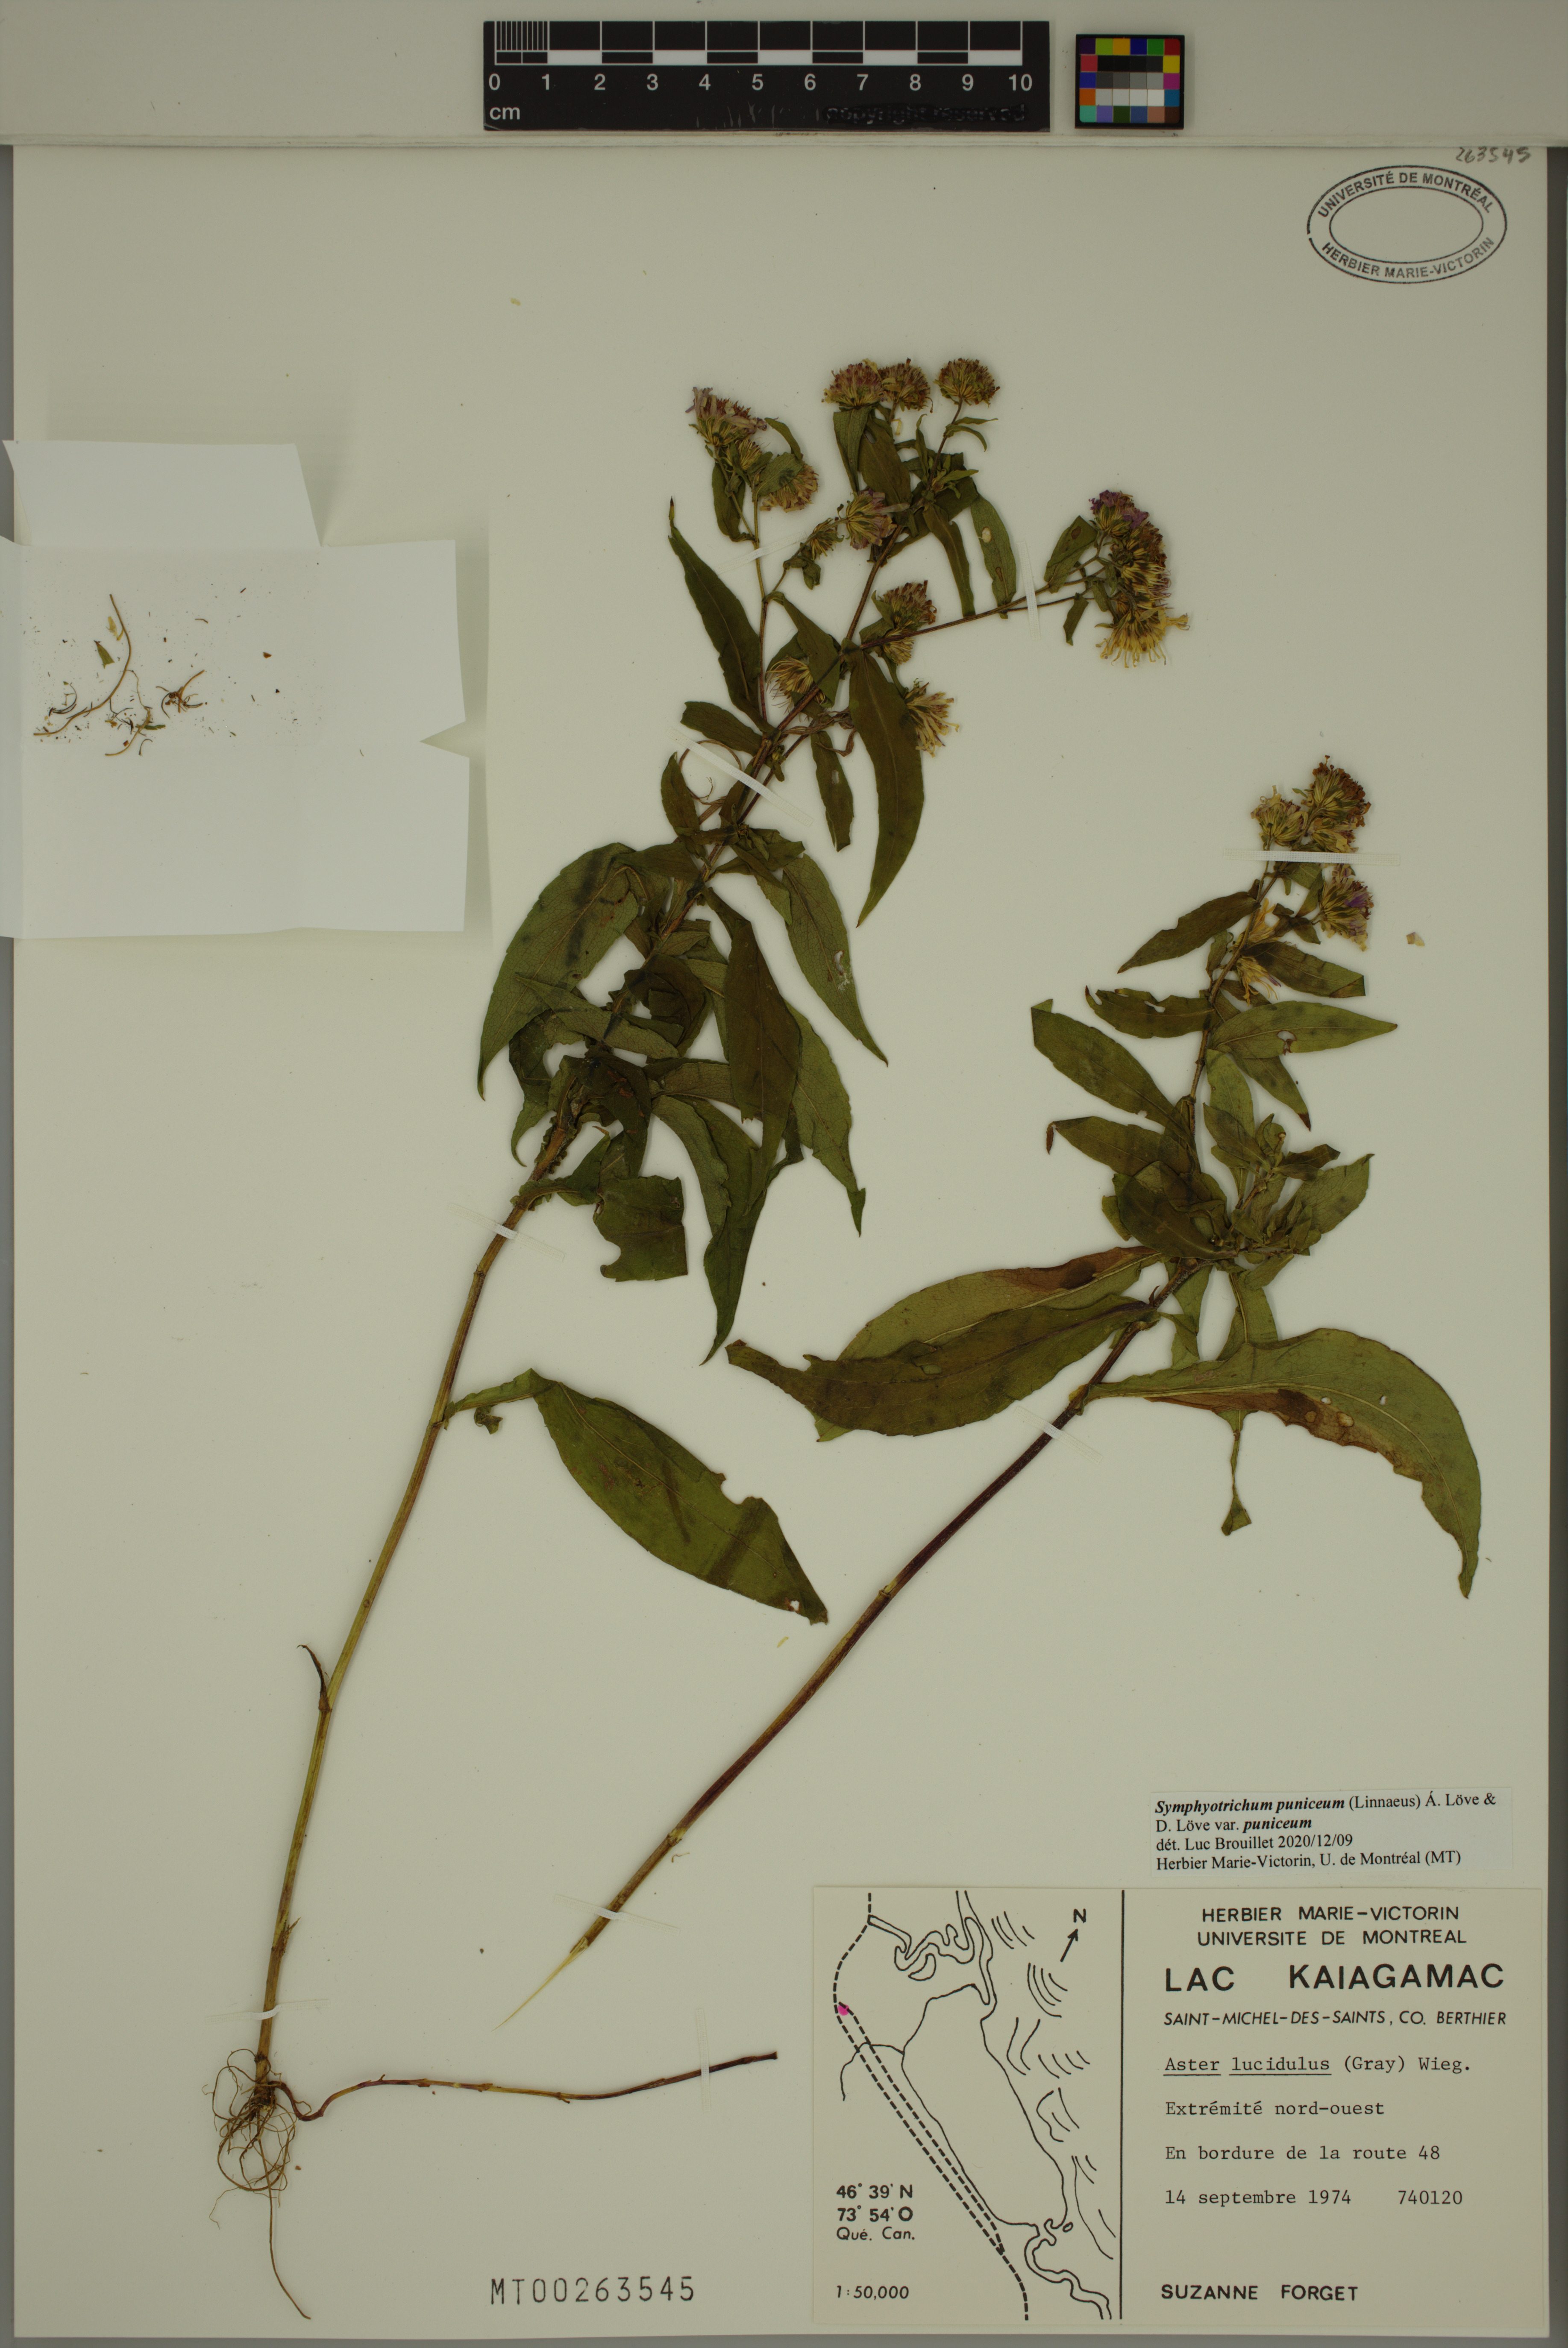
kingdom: Plantae
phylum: Tracheophyta
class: Magnoliopsida
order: Asterales
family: Asteraceae
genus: Symphyotrichum
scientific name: Symphyotrichum puniceum
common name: Bog aster
